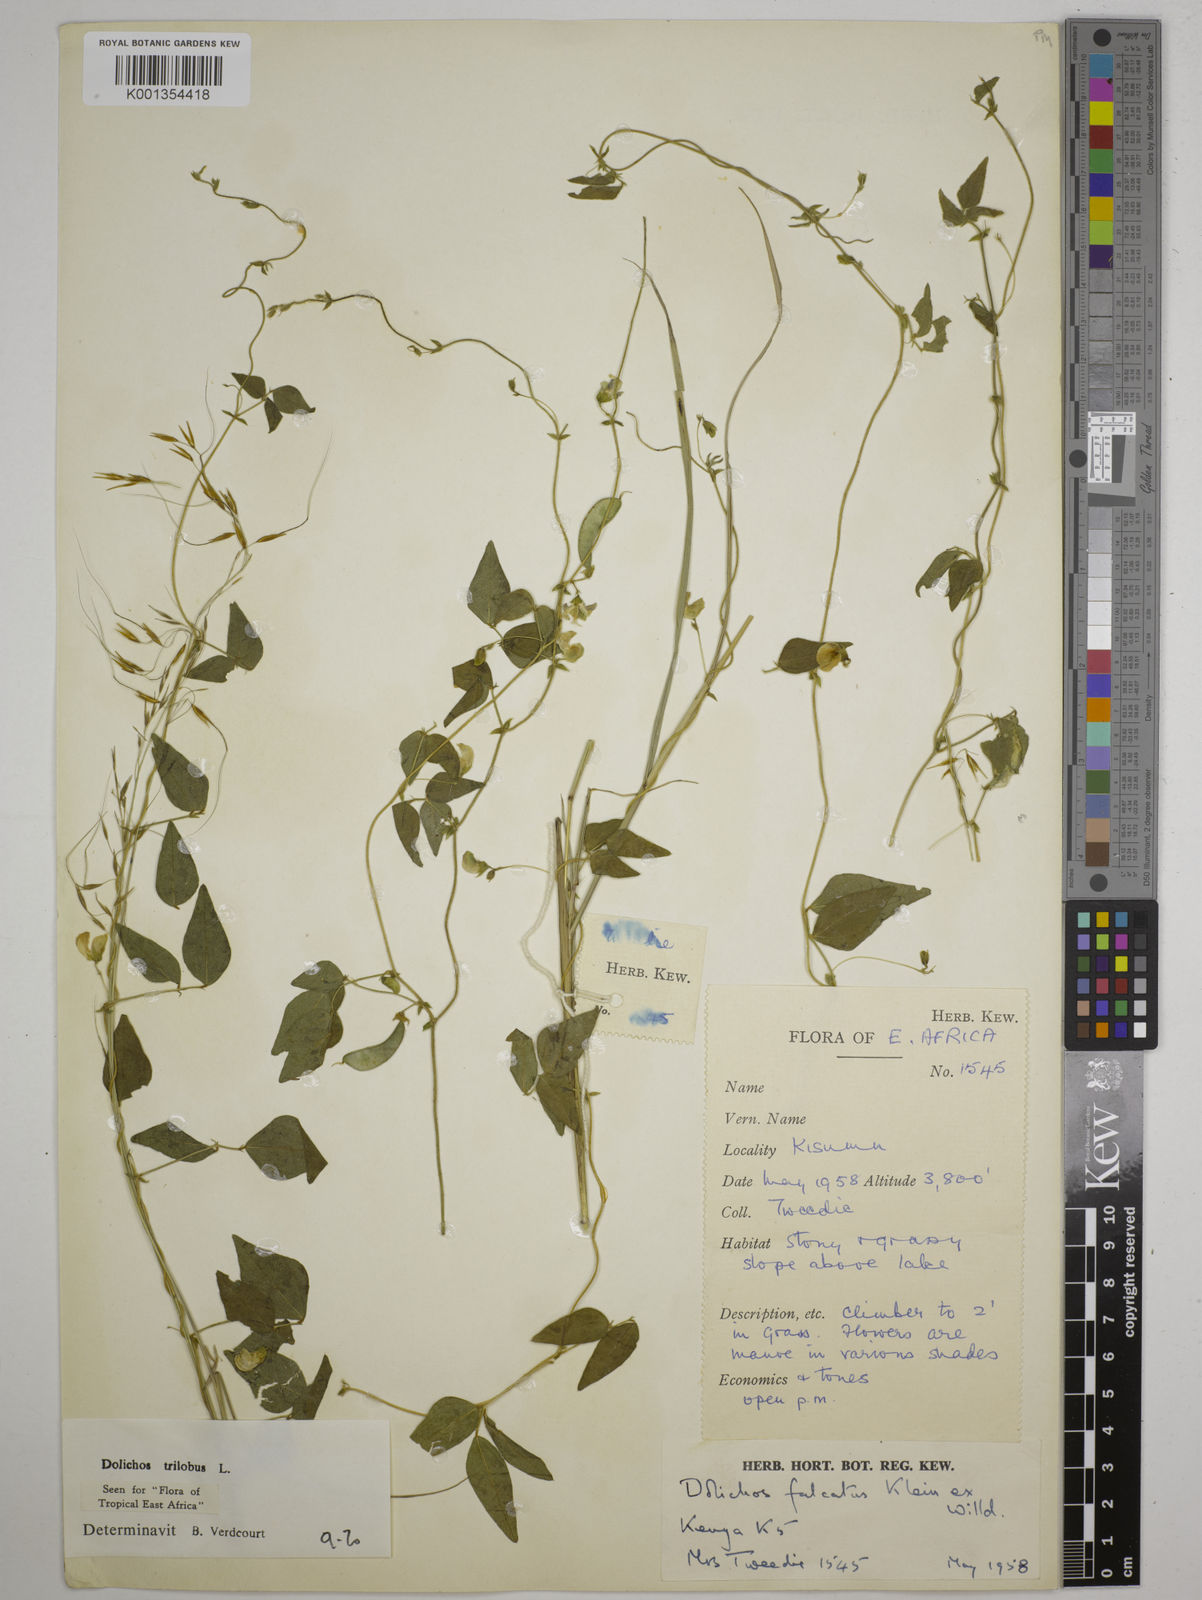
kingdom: Plantae
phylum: Tracheophyta
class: Magnoliopsida
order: Fabales
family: Fabaceae
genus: Dolichos
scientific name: Dolichos
